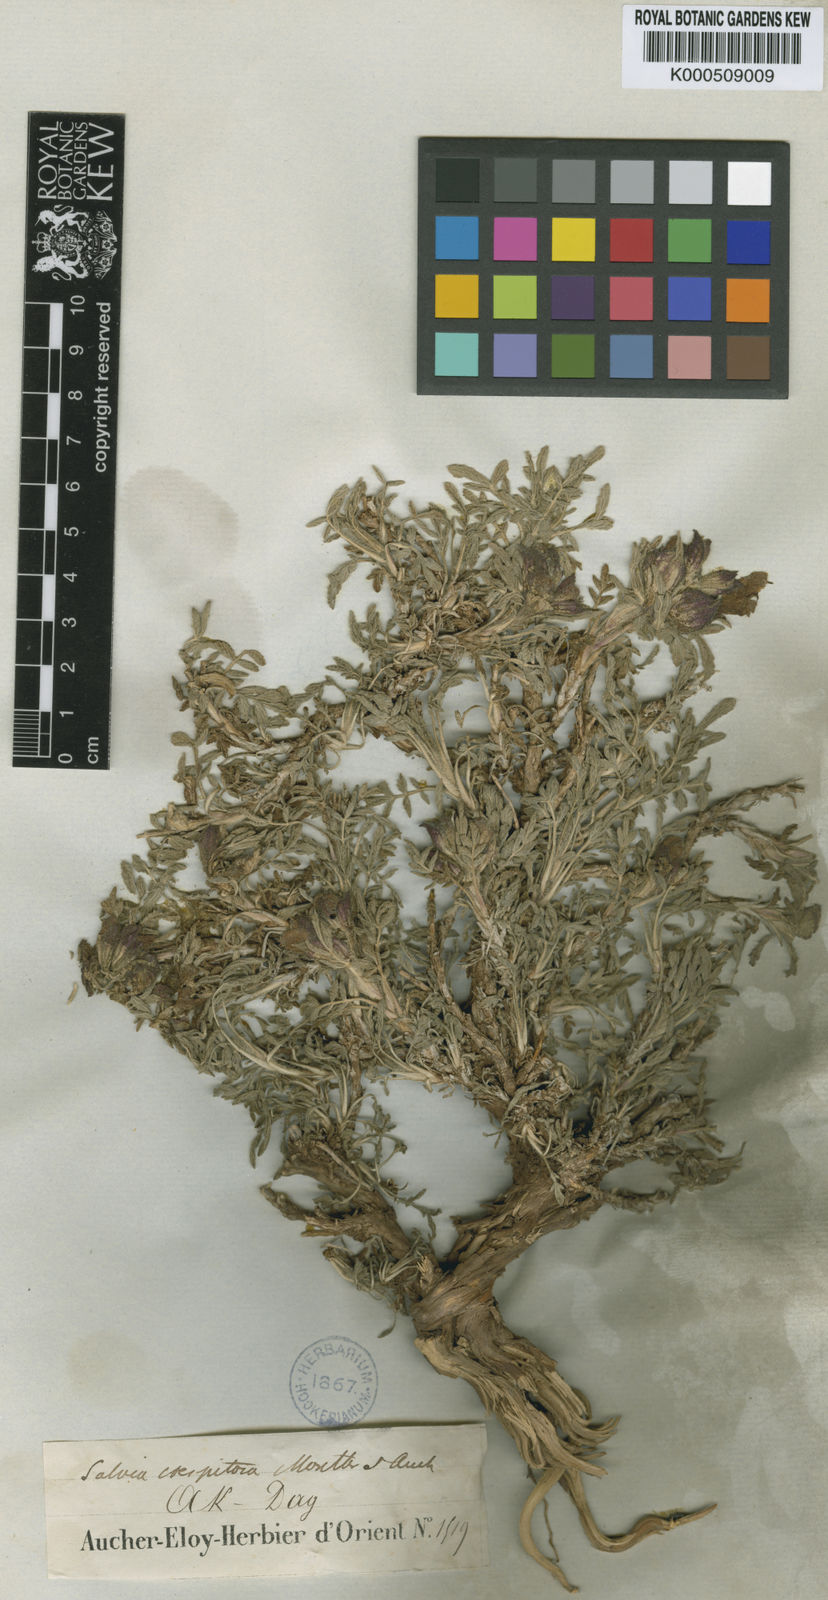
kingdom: Plantae
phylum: Tracheophyta
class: Magnoliopsida
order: Lamiales
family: Lamiaceae
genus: Salvia
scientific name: Salvia caespitosa
